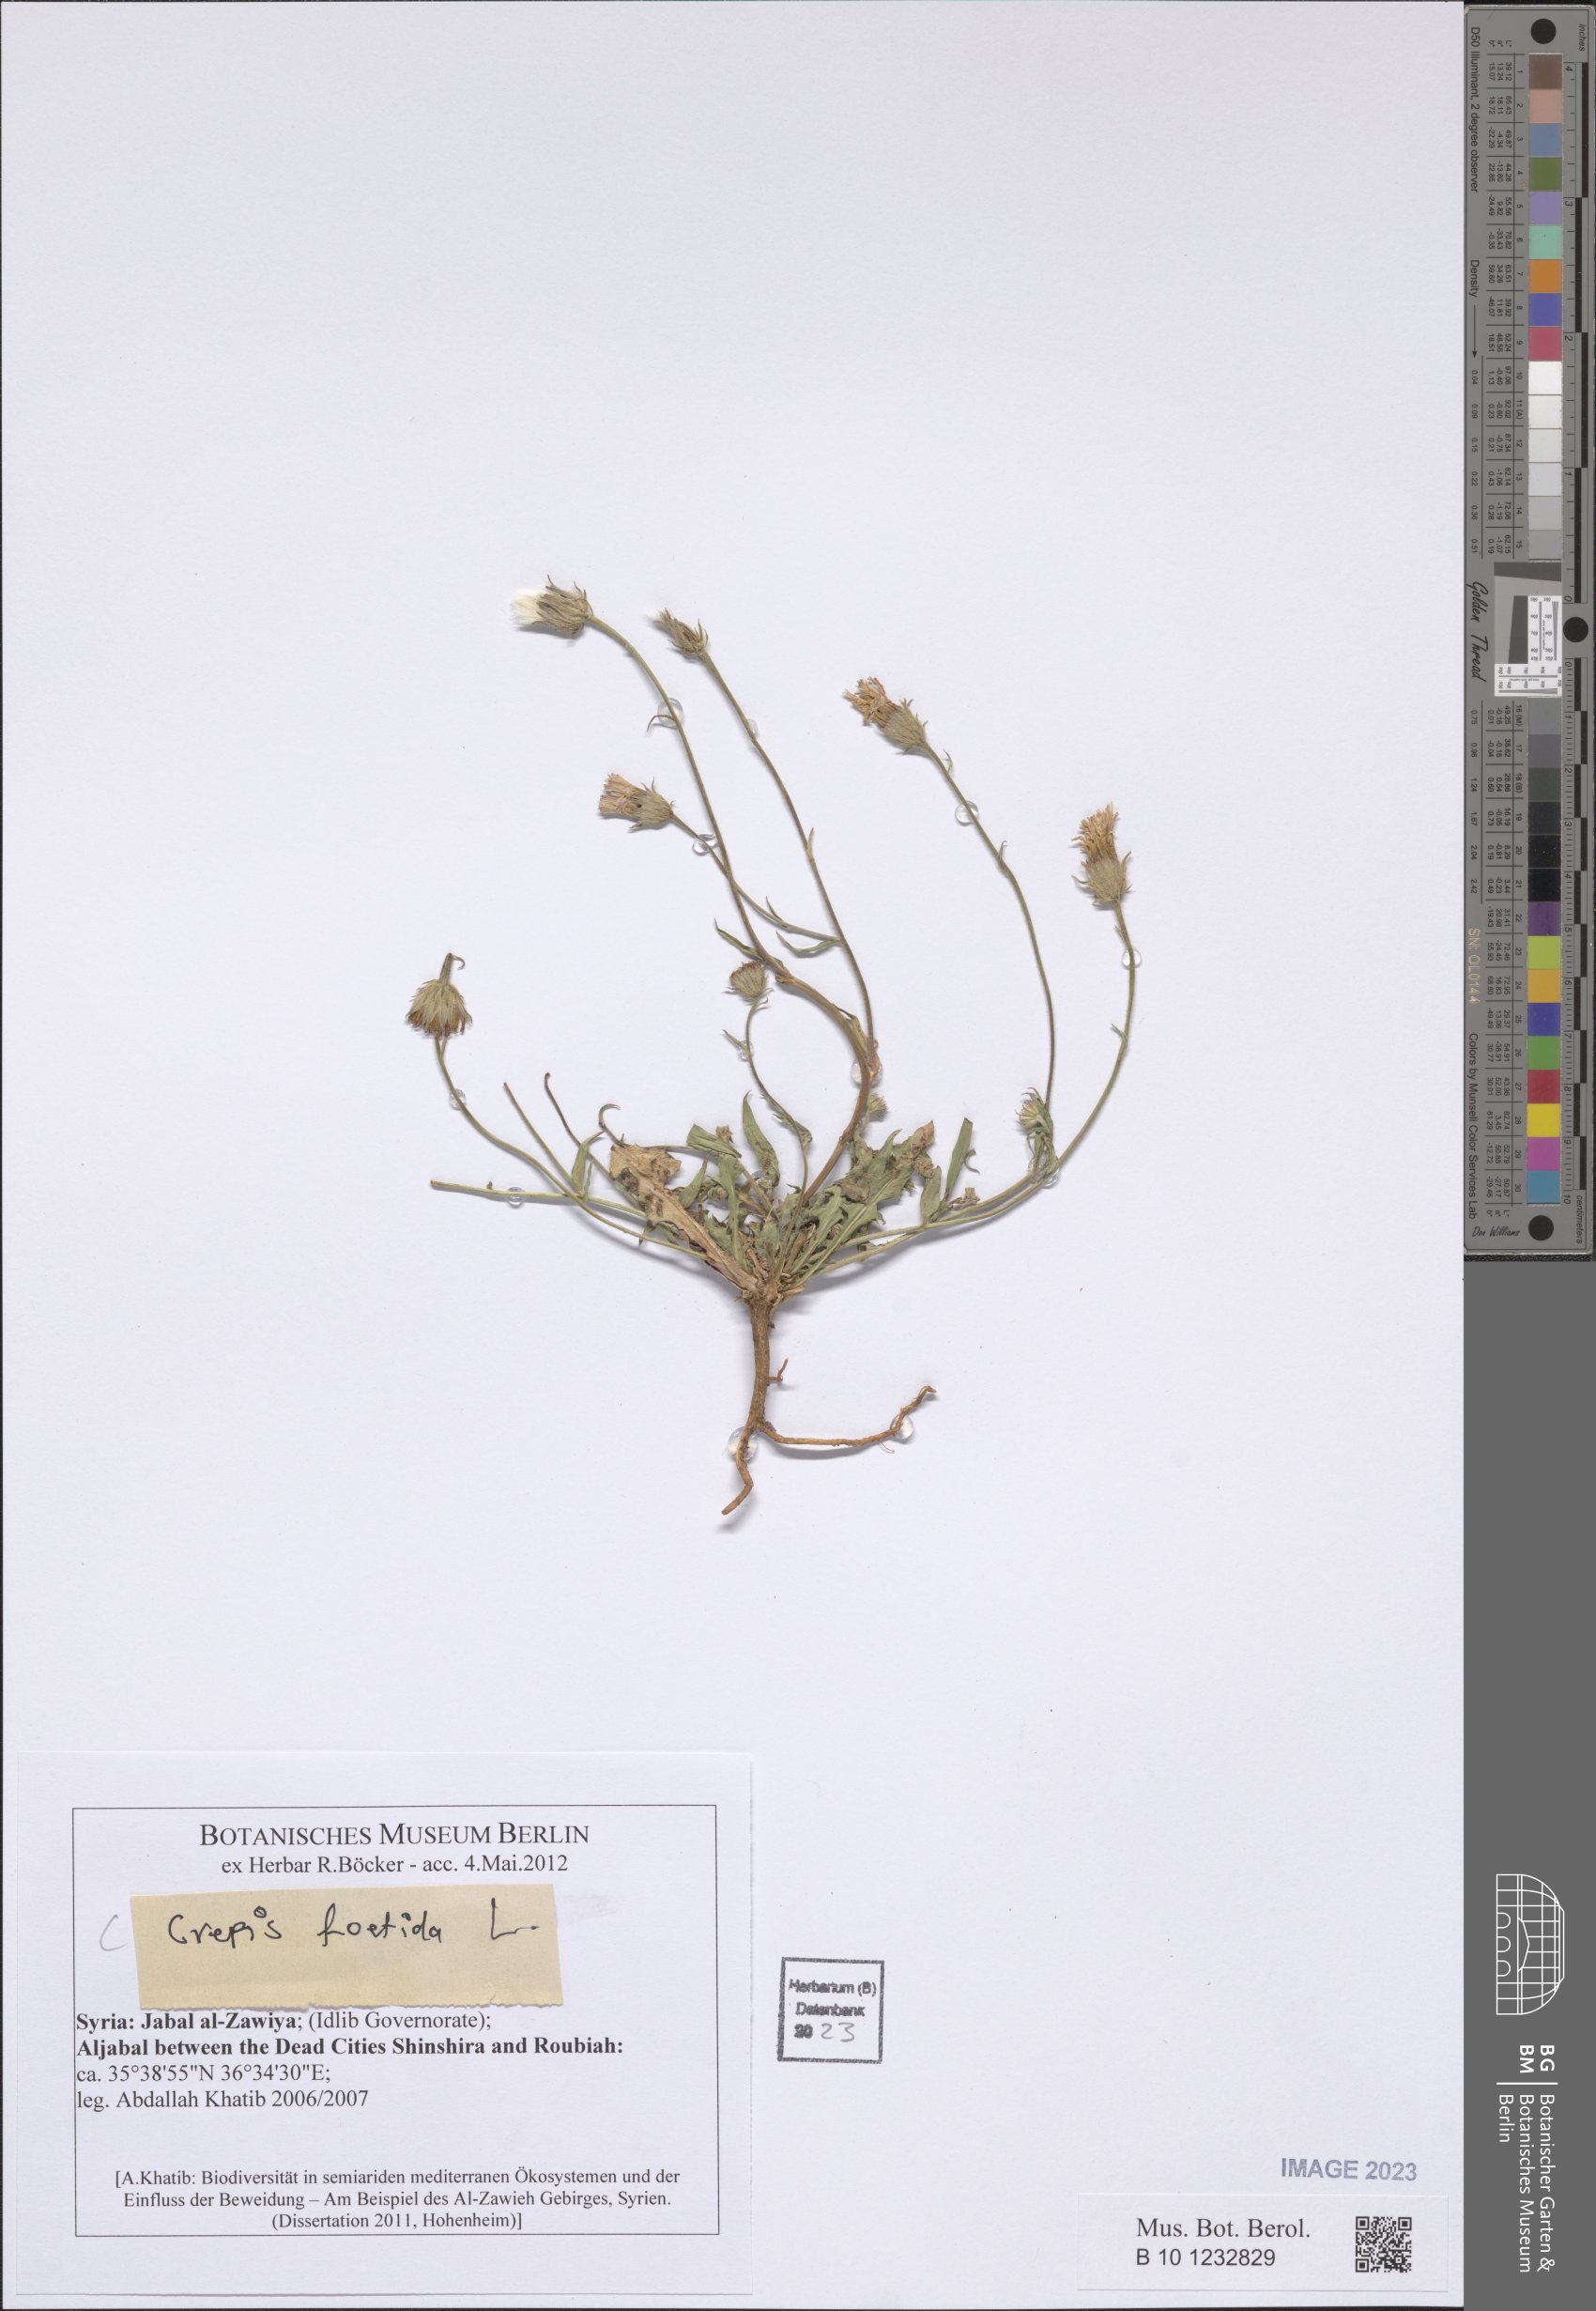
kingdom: Plantae
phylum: Tracheophyta
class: Magnoliopsida
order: Asterales
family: Asteraceae
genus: Crepis
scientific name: Crepis foetida
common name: Stinking hawk's-beard
